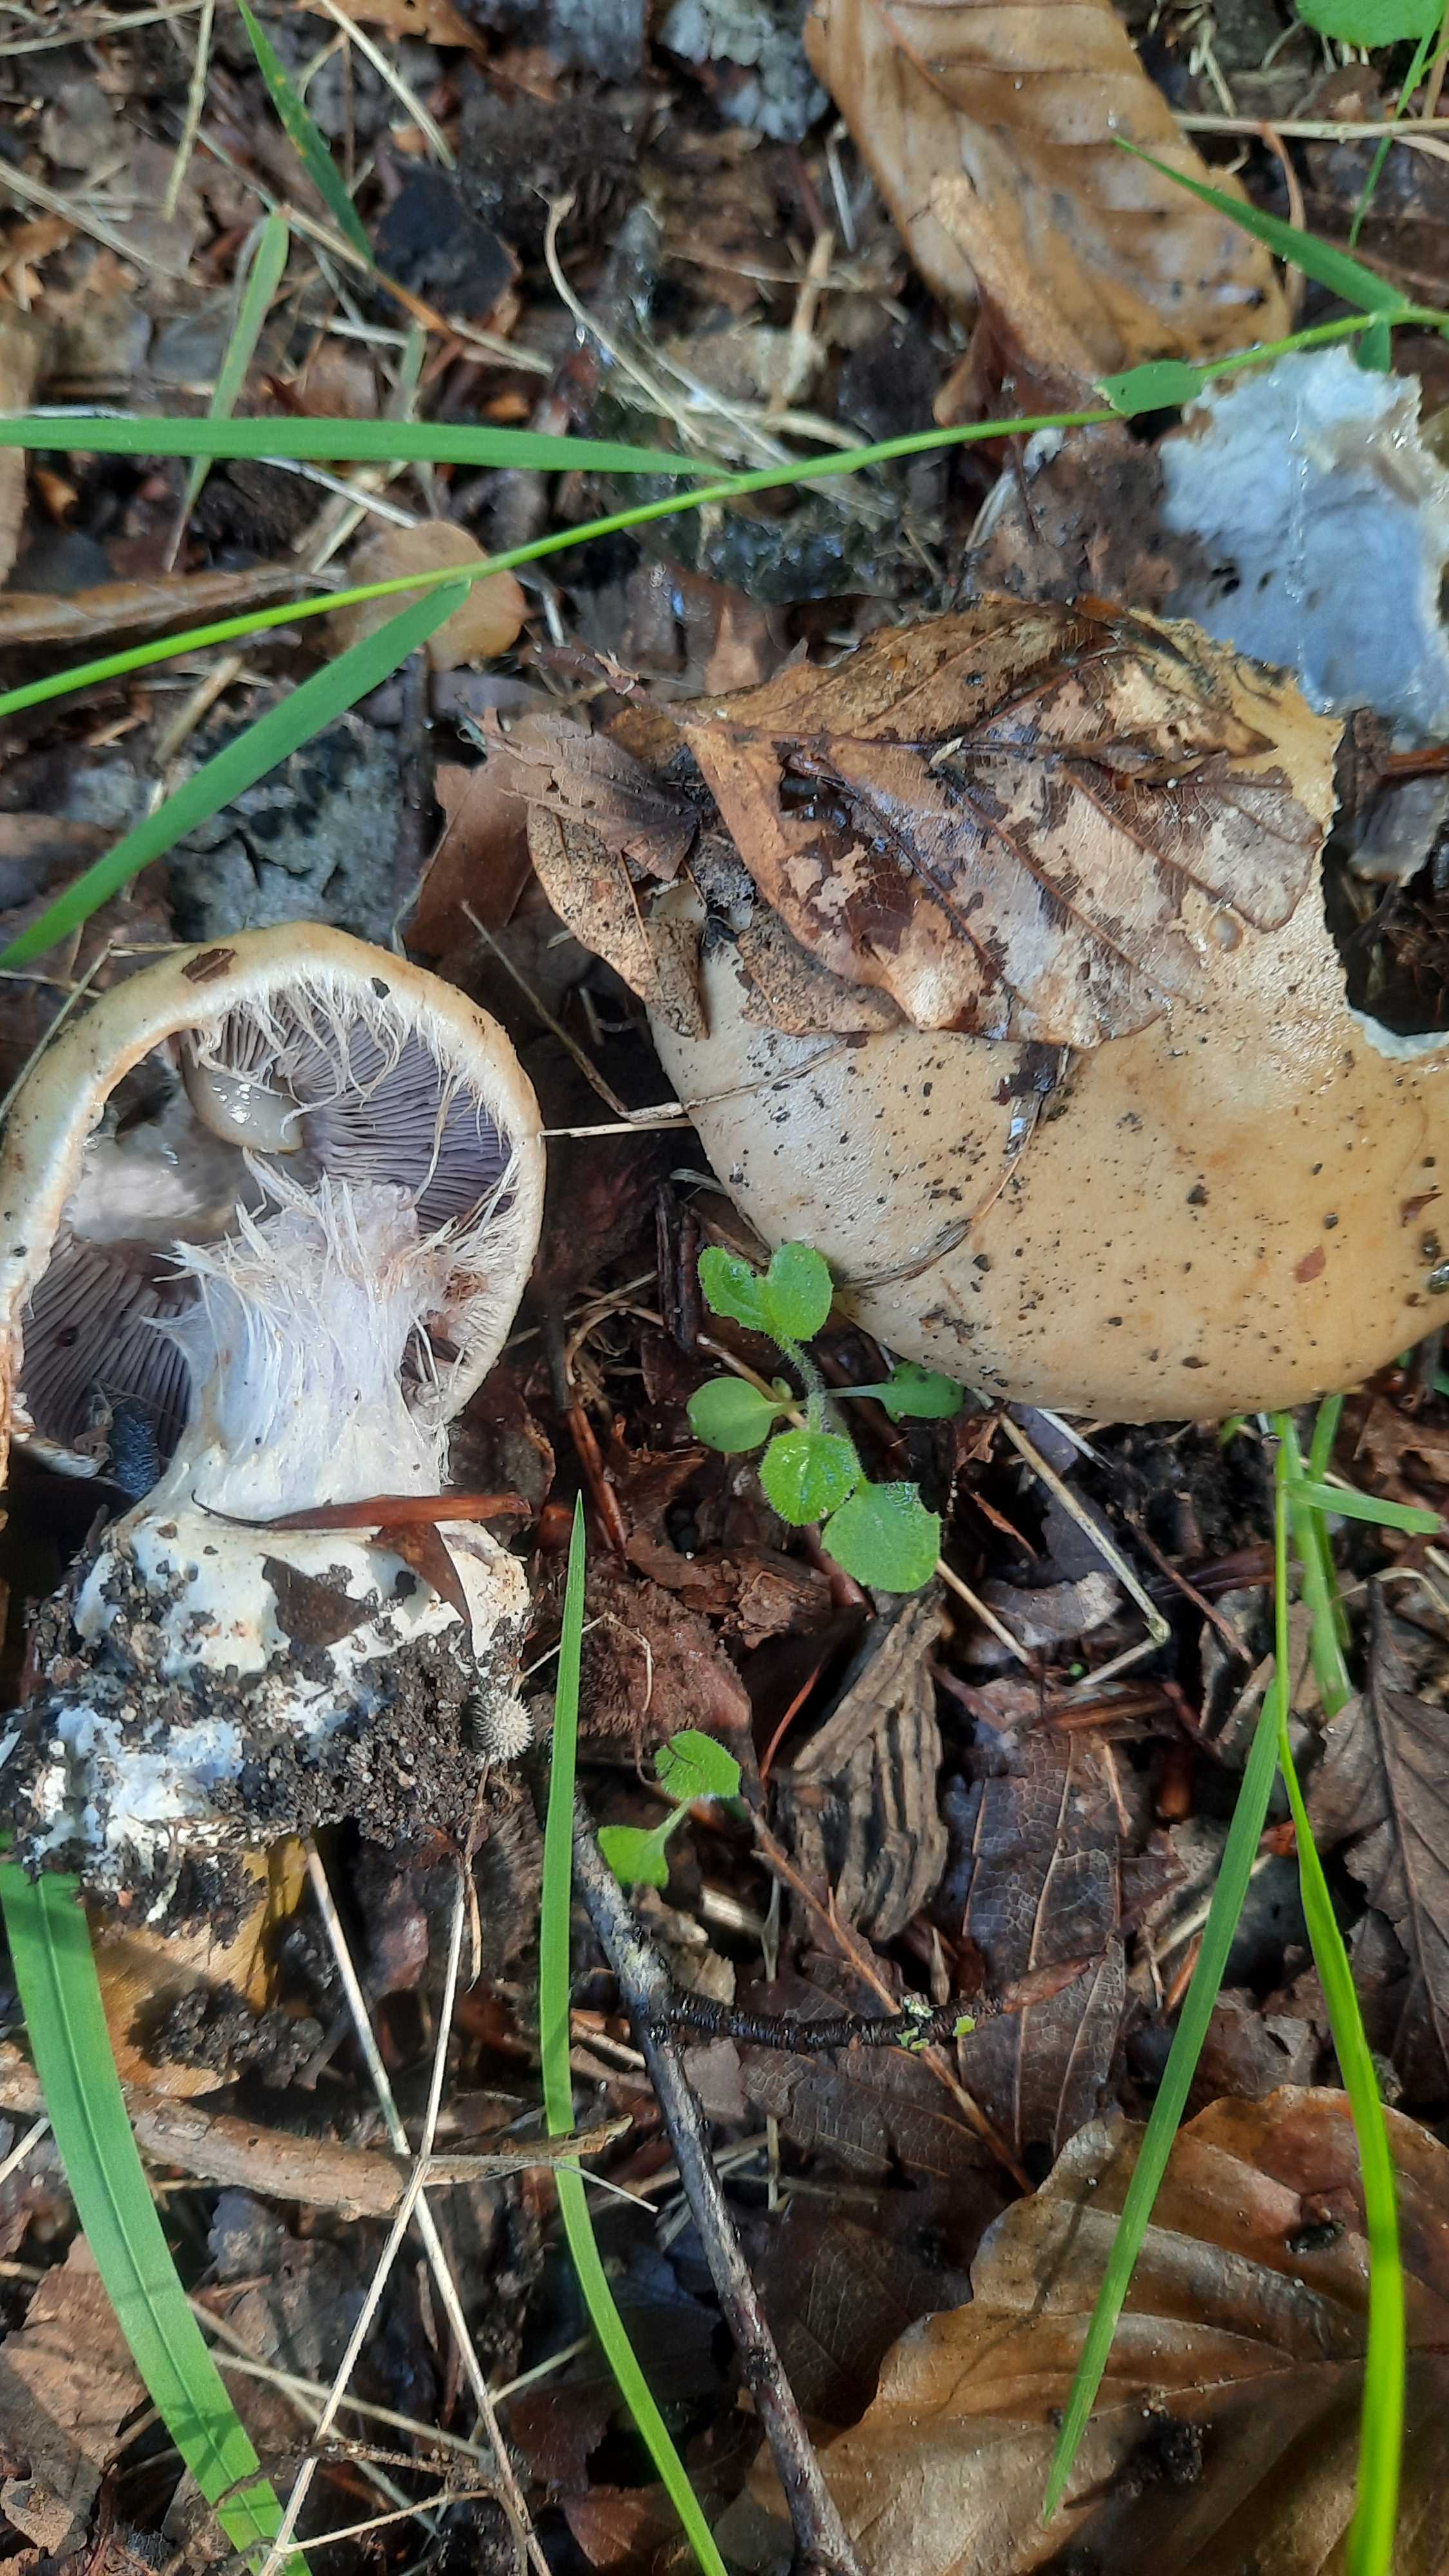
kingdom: Fungi
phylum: Basidiomycota
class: Agaricomycetes
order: Agaricales
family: Cortinariaceae
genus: Cortinarius
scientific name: Cortinarius anserinus
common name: bøge-slørhat
